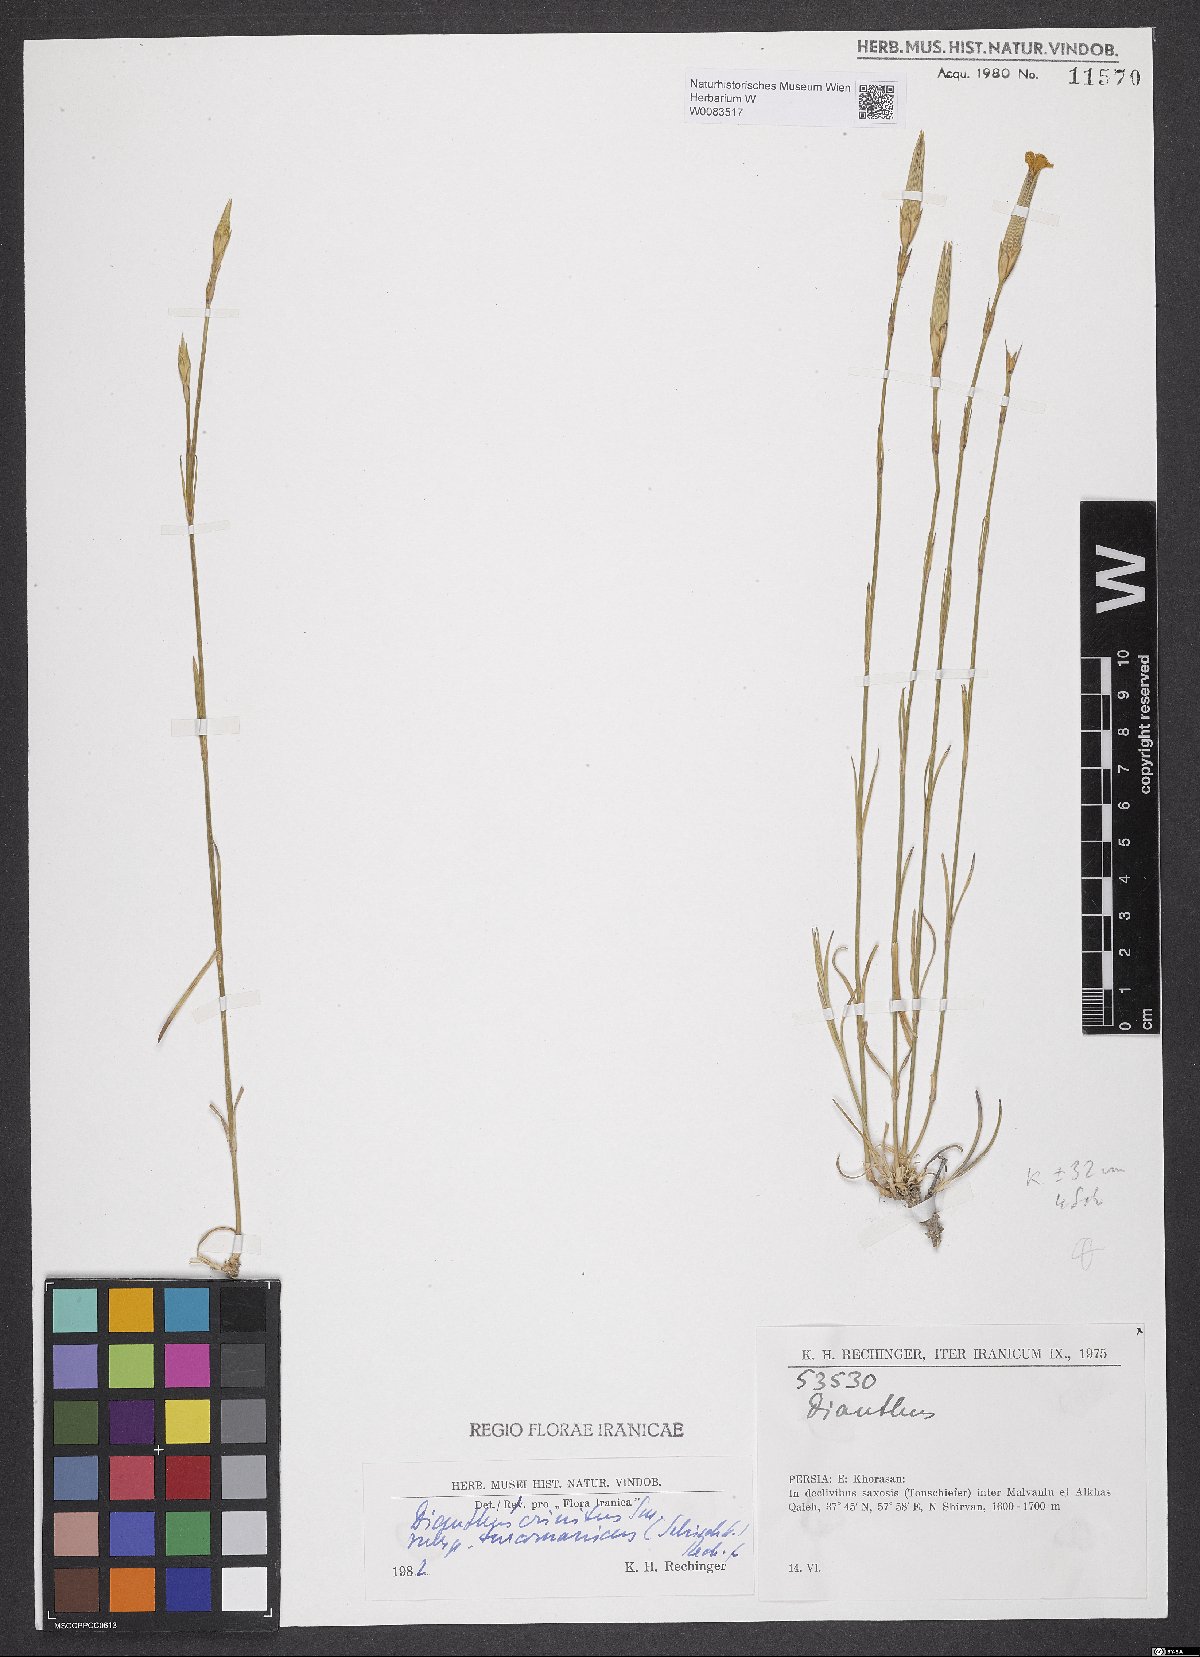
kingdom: Plantae
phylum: Tracheophyta
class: Magnoliopsida
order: Caryophyllales
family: Caryophyllaceae
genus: Dianthus
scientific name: Dianthus turkestanicus
